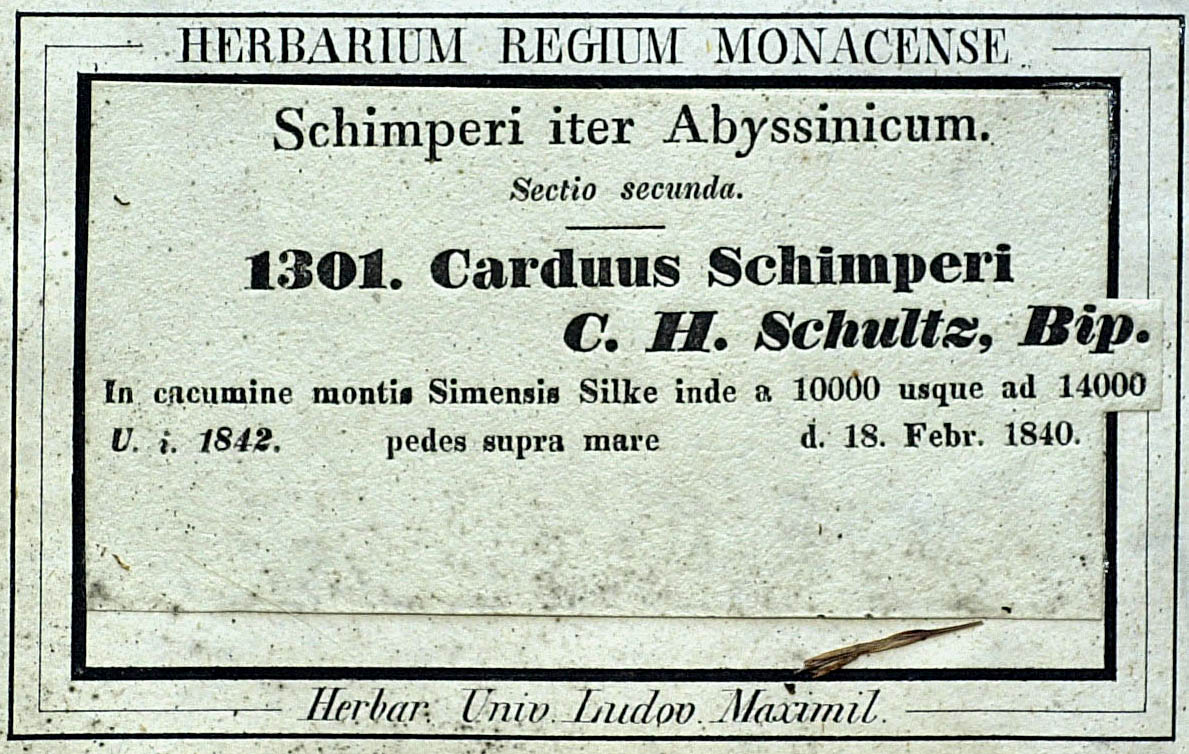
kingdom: Plantae
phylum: Tracheophyta
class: Magnoliopsida
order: Asterales
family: Asteraceae
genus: Carduus
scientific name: Carduus schimperi
